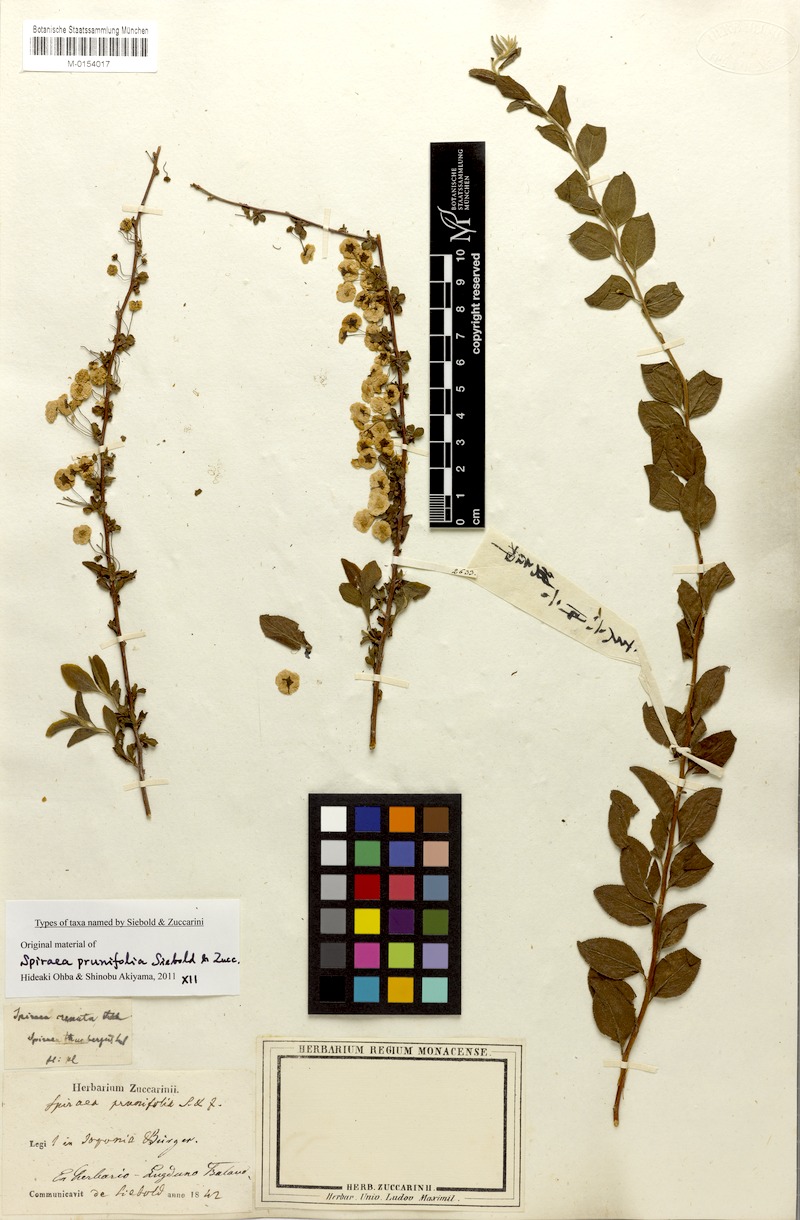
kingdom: Plantae
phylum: Tracheophyta
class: Magnoliopsida
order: Rosales
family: Rosaceae
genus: Spiraea
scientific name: Spiraea prunifolia
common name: Bridal-wreath spiraea
